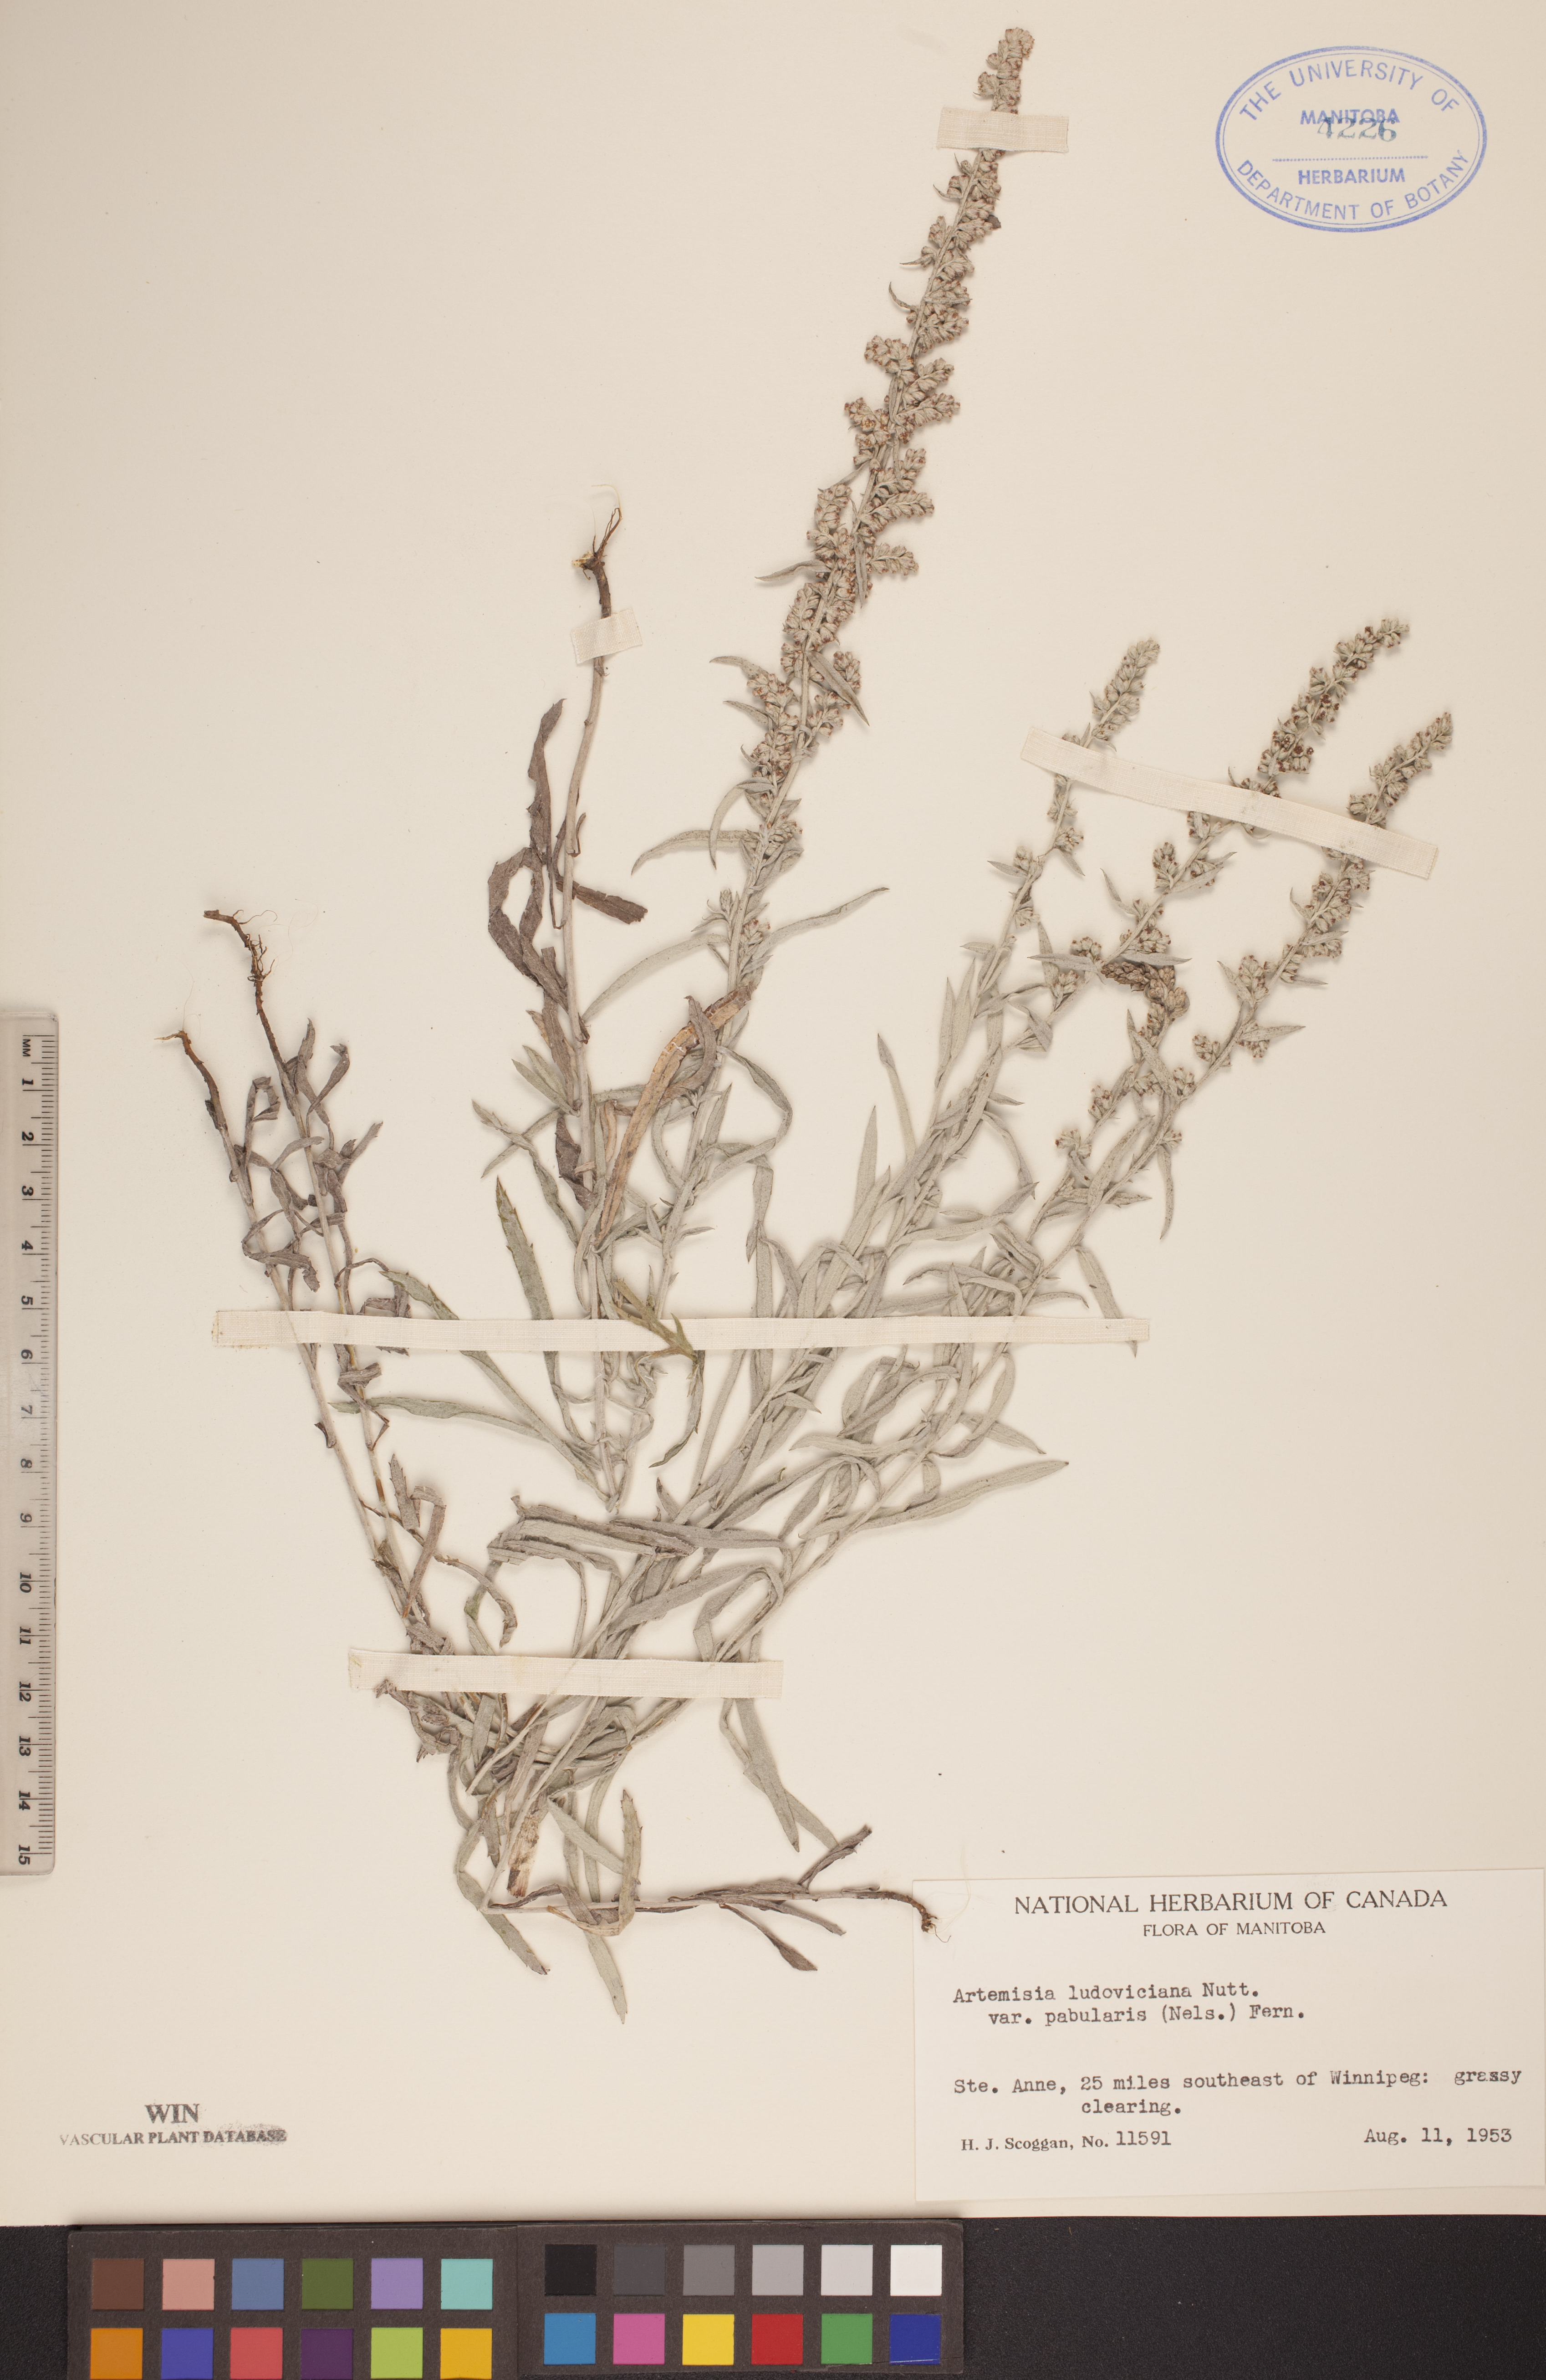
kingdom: Plantae
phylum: Tracheophyta
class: Magnoliopsida
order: Asterales
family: Asteraceae
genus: Artemisia
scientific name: Artemisia ludoviciana
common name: Western mugwort
